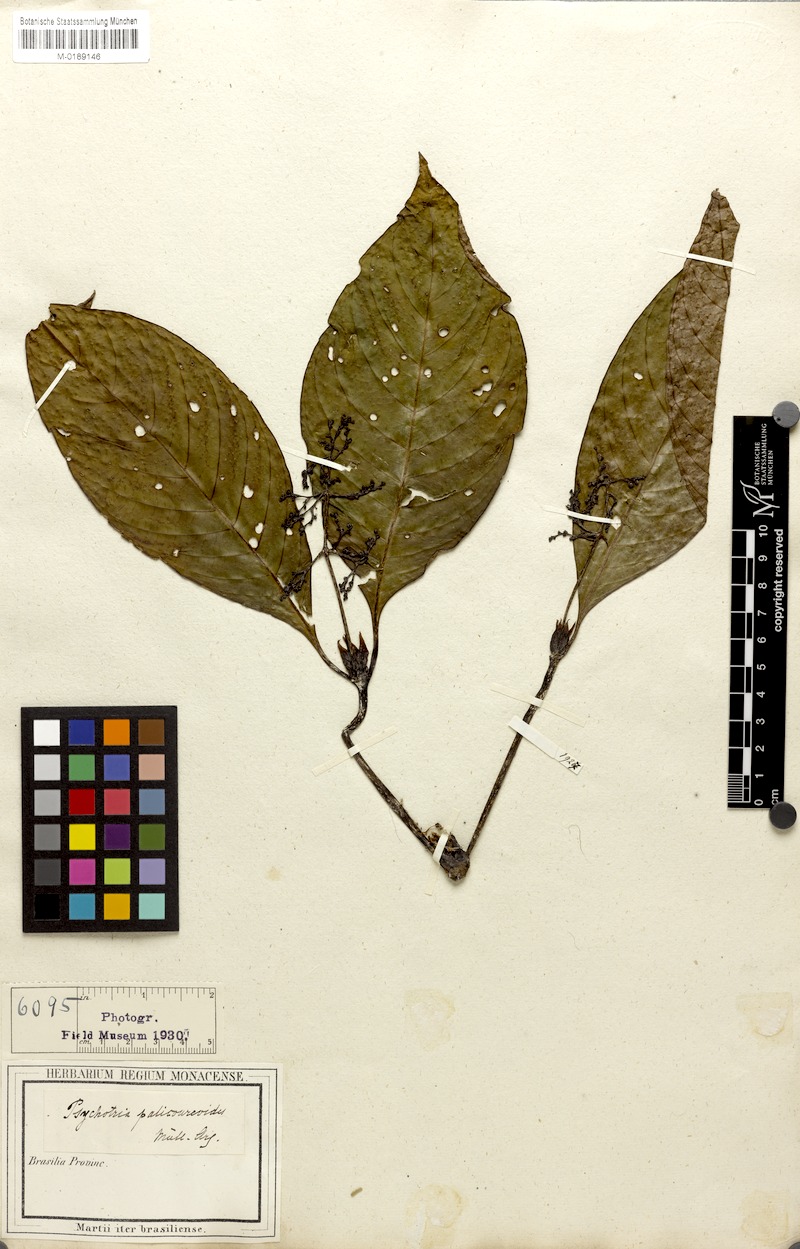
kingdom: Plantae
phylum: Tracheophyta
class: Magnoliopsida
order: Gentianales
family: Rubiaceae
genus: Palicourea
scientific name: Palicourea microbotrys
